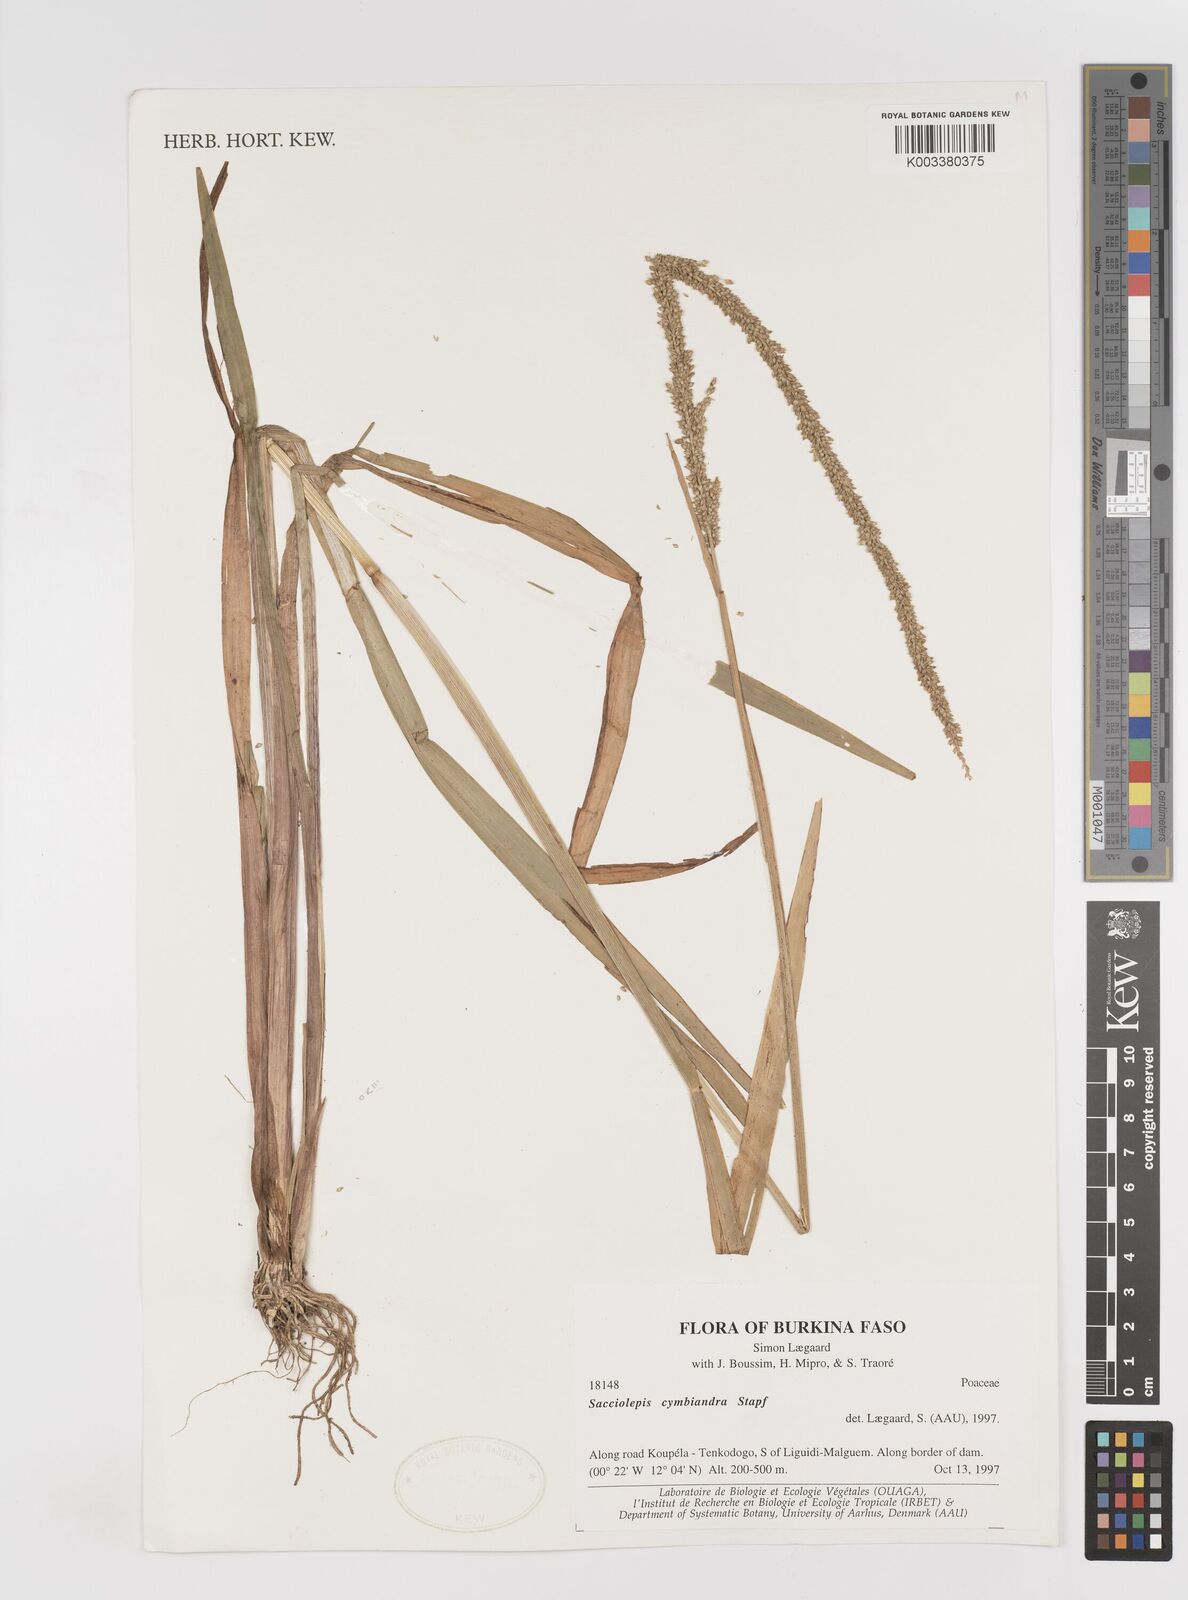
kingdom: Plantae
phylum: Tracheophyta
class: Liliopsida
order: Poales
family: Poaceae
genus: Sacciolepis
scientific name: Sacciolepis cymbiandra
